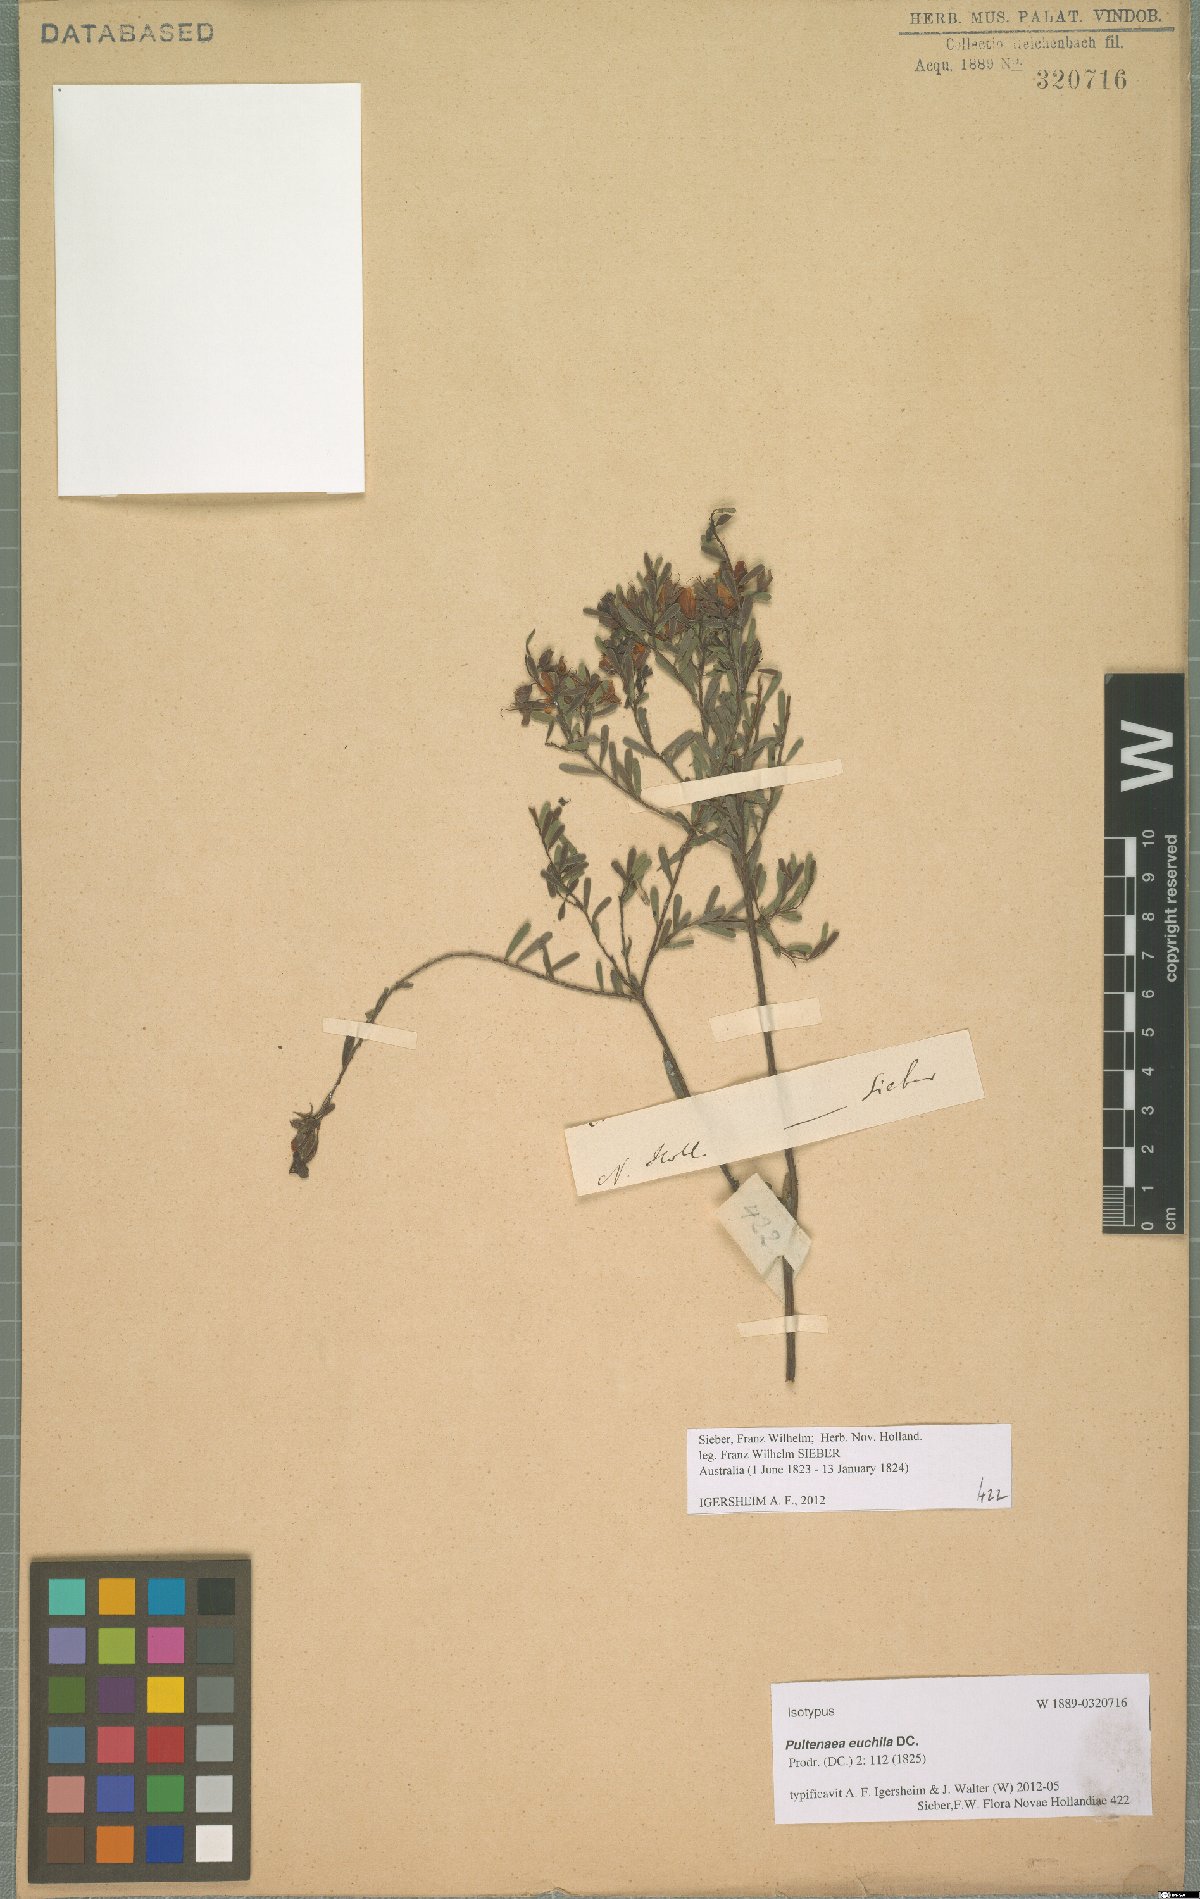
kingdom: Plantae
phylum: Tracheophyta
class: Magnoliopsida
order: Fabales
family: Fabaceae
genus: Pultenaea
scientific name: Pultenaea euchila
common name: Large-flower bush-pea
